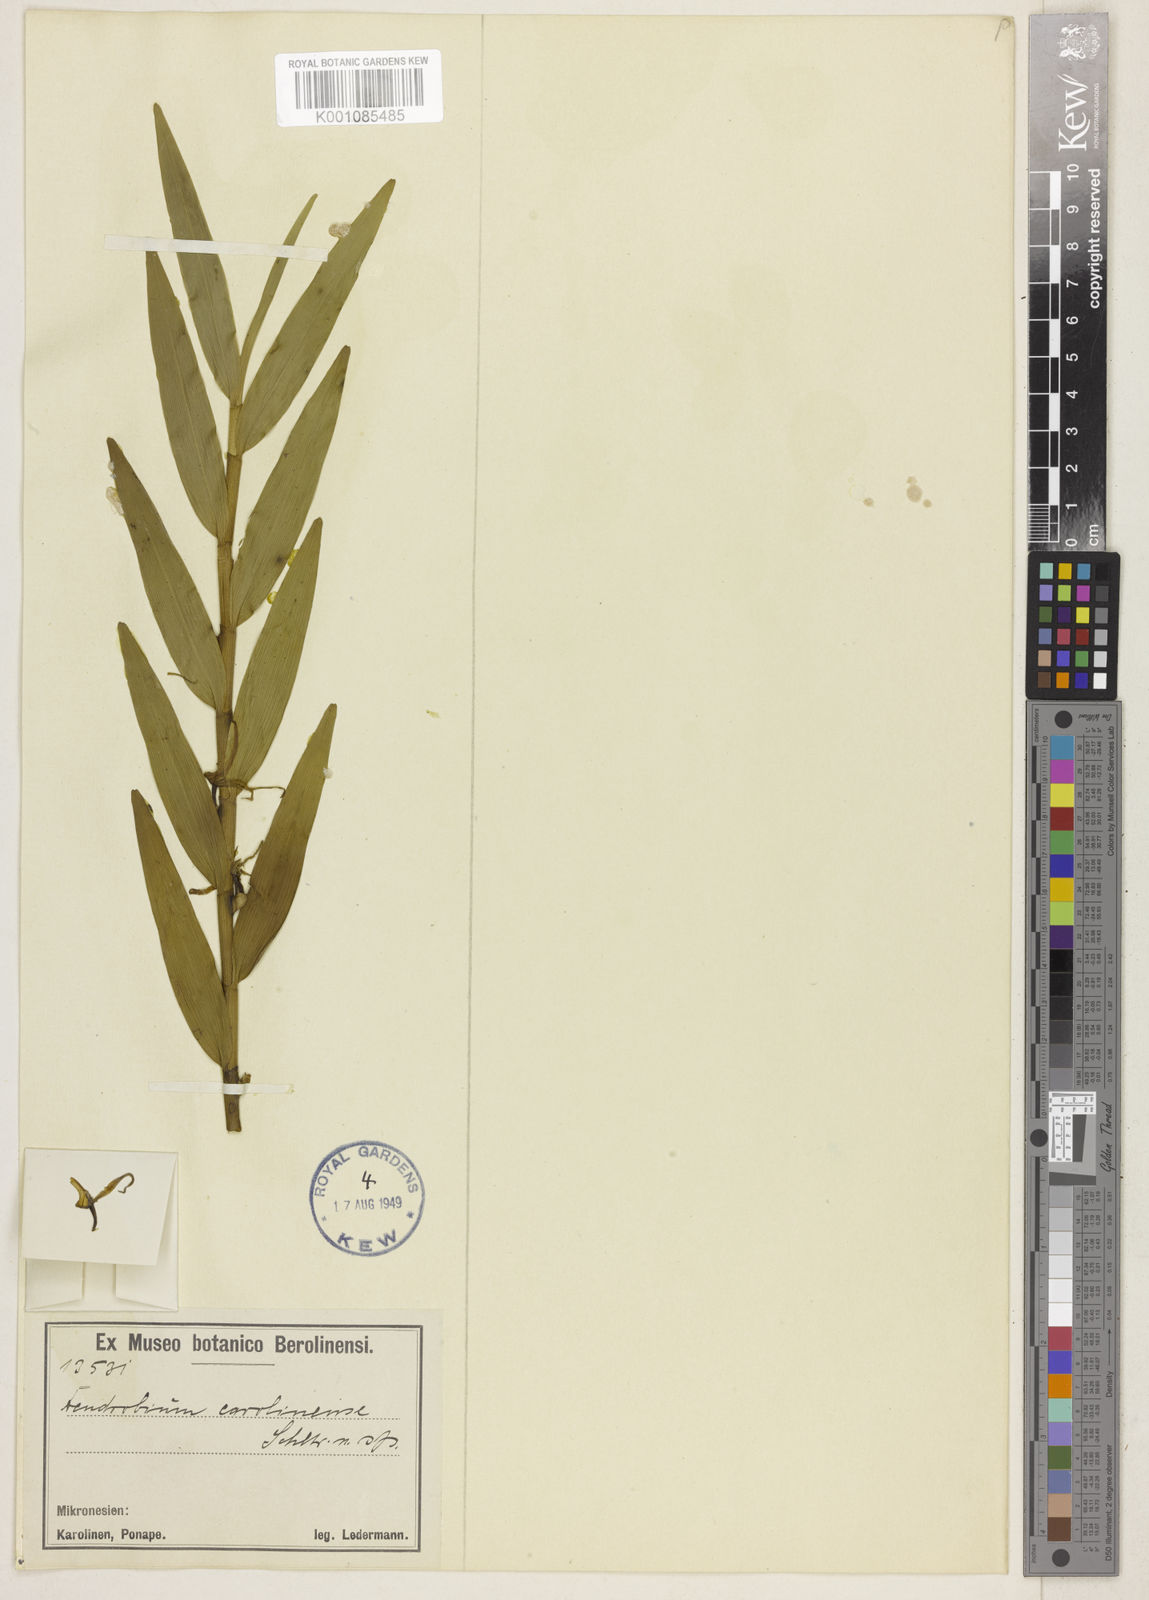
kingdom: Plantae
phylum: Tracheophyta
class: Liliopsida
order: Asparagales
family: Orchidaceae
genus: Dendrobium
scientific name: Dendrobium carolinense
